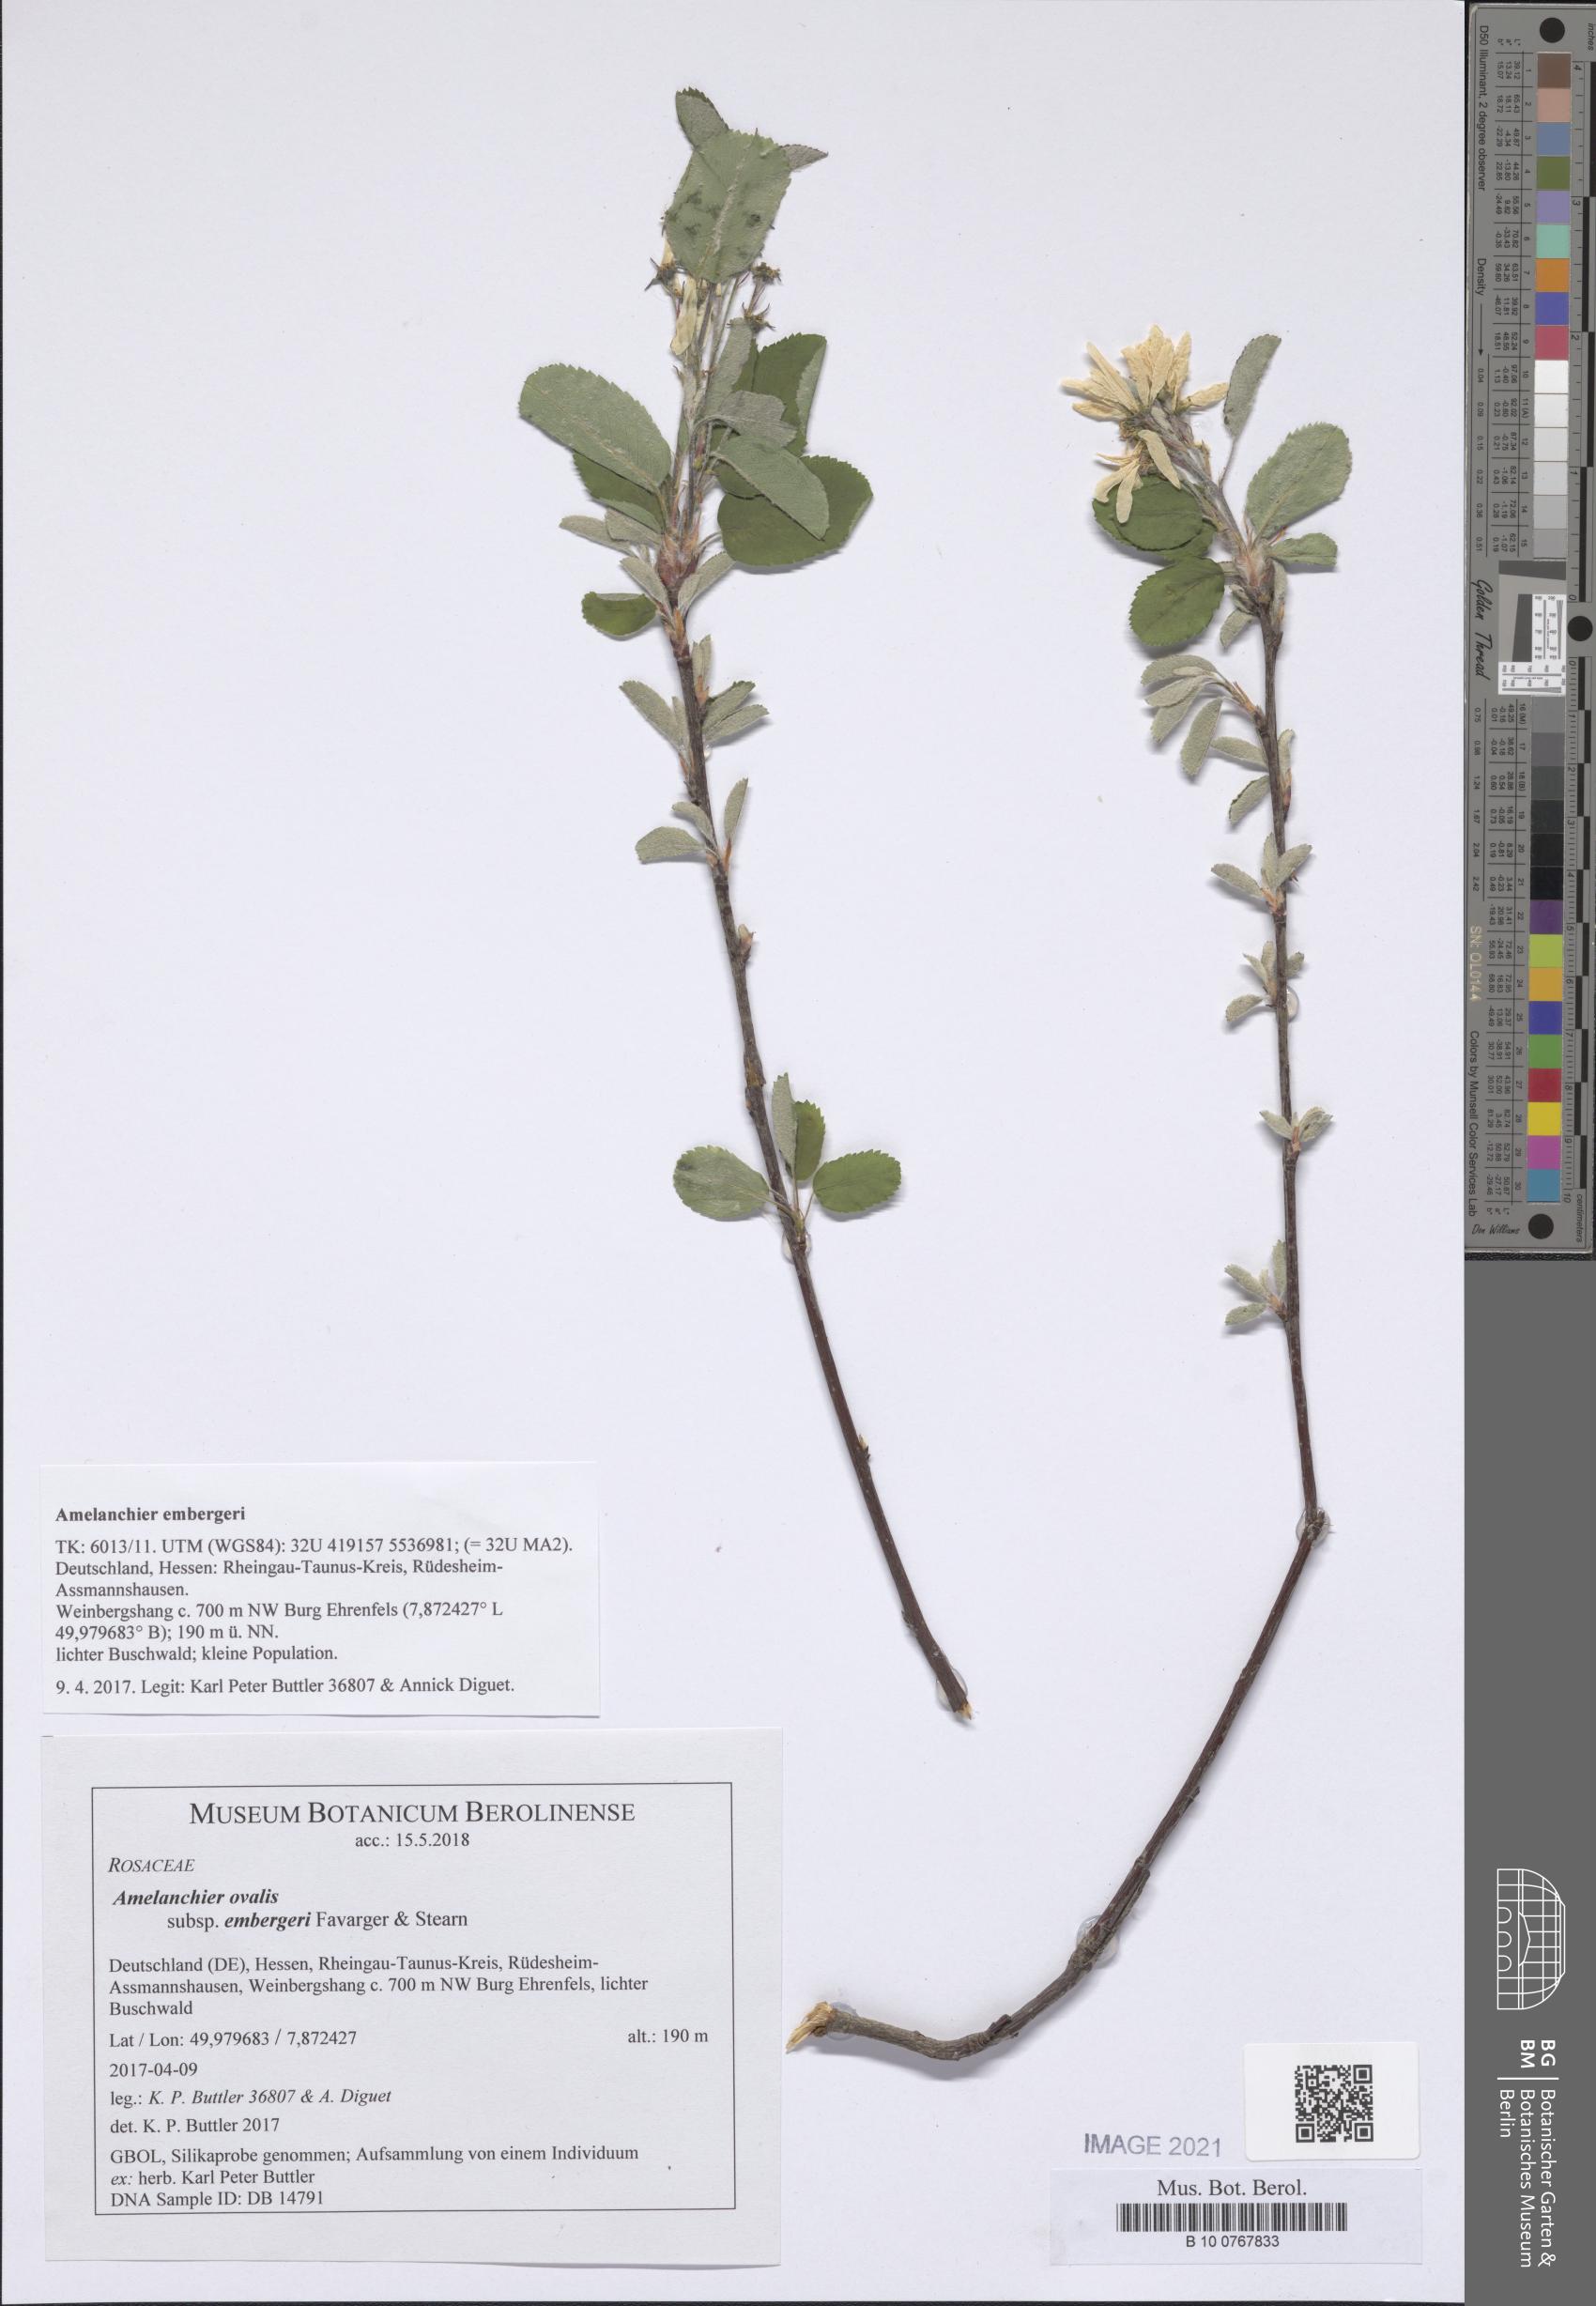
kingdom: Plantae
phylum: Tracheophyta
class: Magnoliopsida
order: Rosales
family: Rosaceae
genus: Amelanchier
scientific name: Amelanchier embergeri
